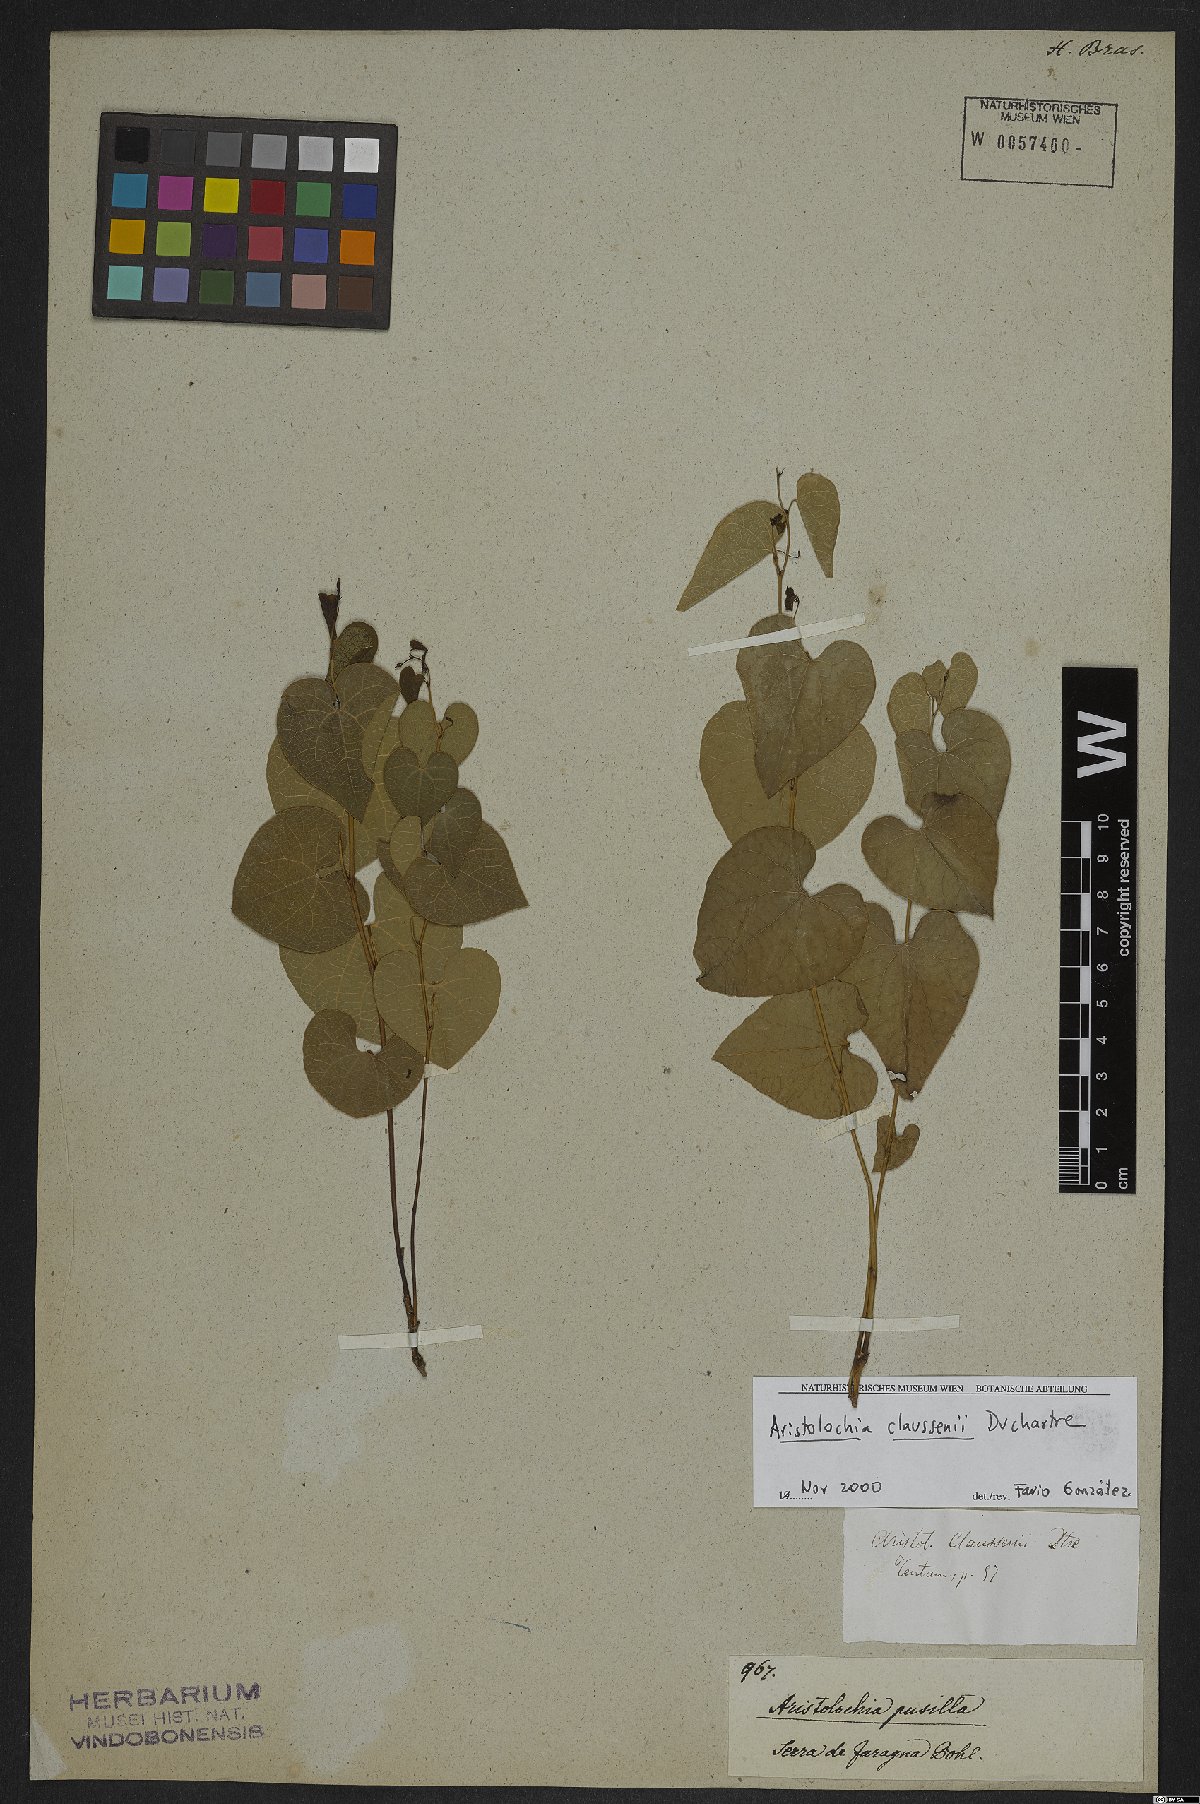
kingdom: Plantae
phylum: Tracheophyta
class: Magnoliopsida
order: Piperales
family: Aristolochiaceae
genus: Aristolochia
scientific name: Aristolochia nummularifolia
